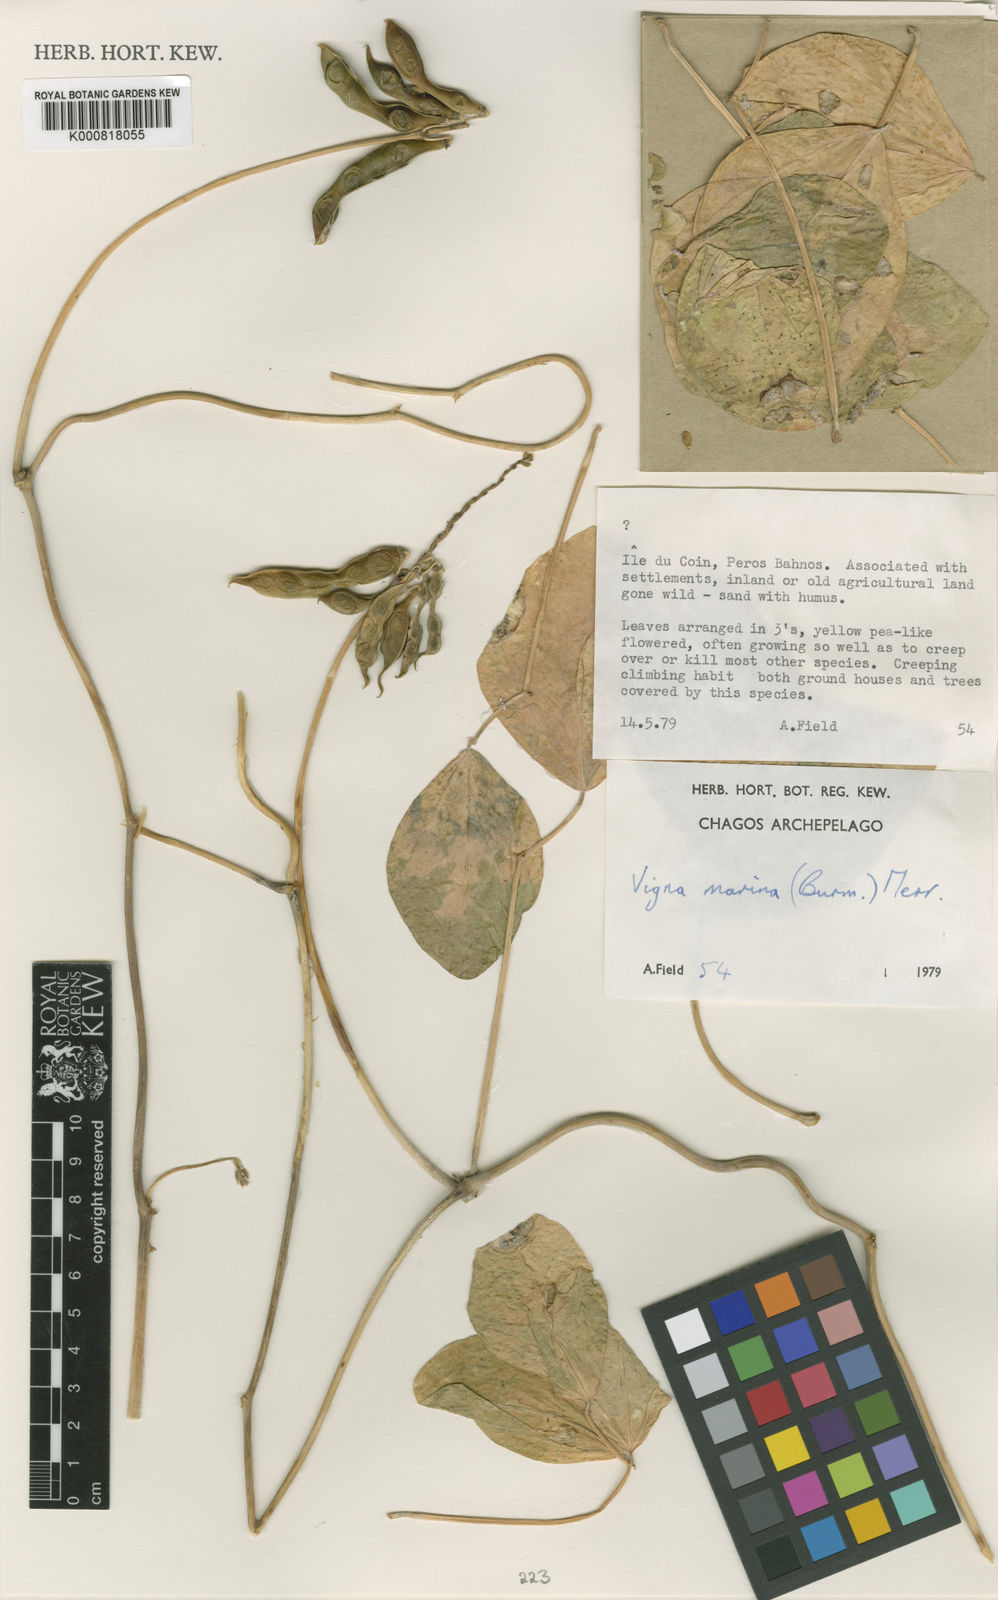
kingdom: Plantae
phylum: Tracheophyta
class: Magnoliopsida
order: Fabales
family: Fabaceae
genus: Vigna
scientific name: Vigna marina
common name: Dune-bean
